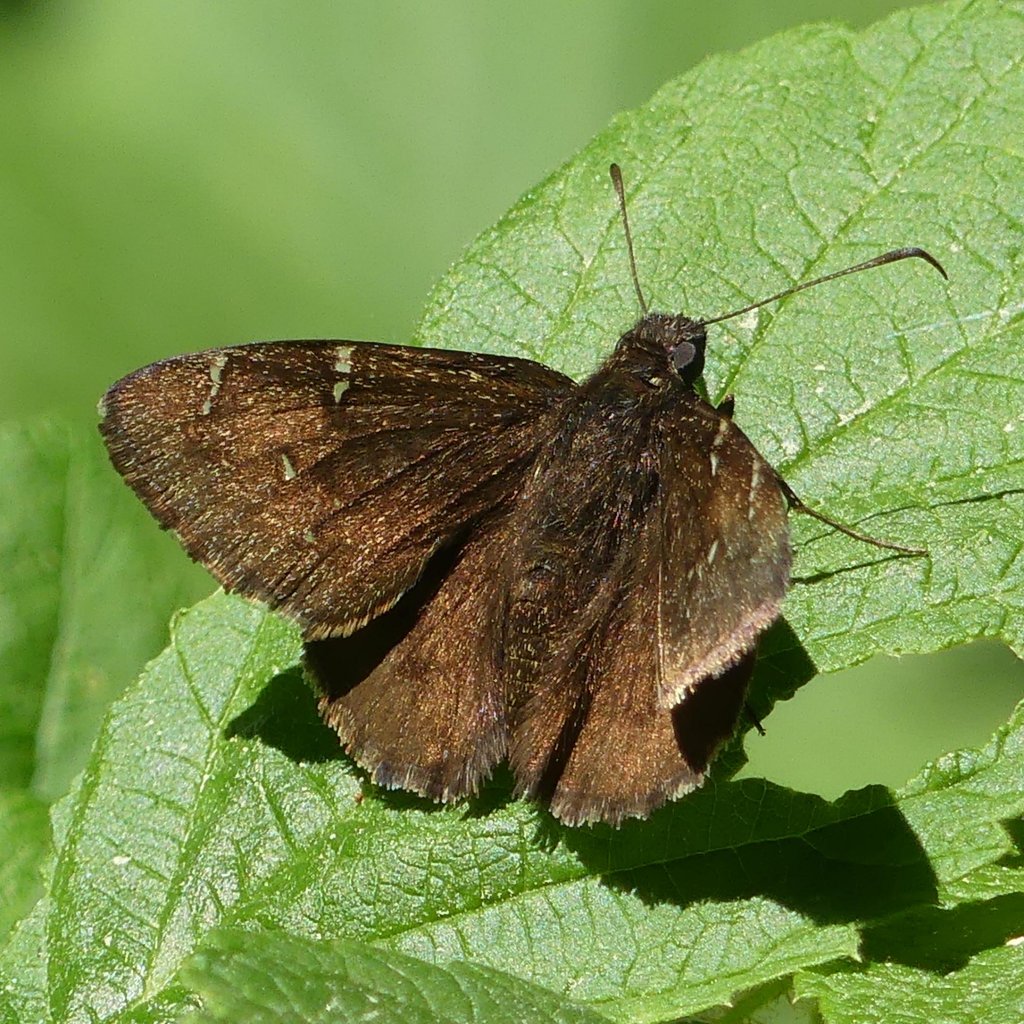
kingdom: Animalia
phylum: Arthropoda
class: Insecta
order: Lepidoptera
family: Hesperiidae
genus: Autochton
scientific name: Autochton
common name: Northern Cloudywing
